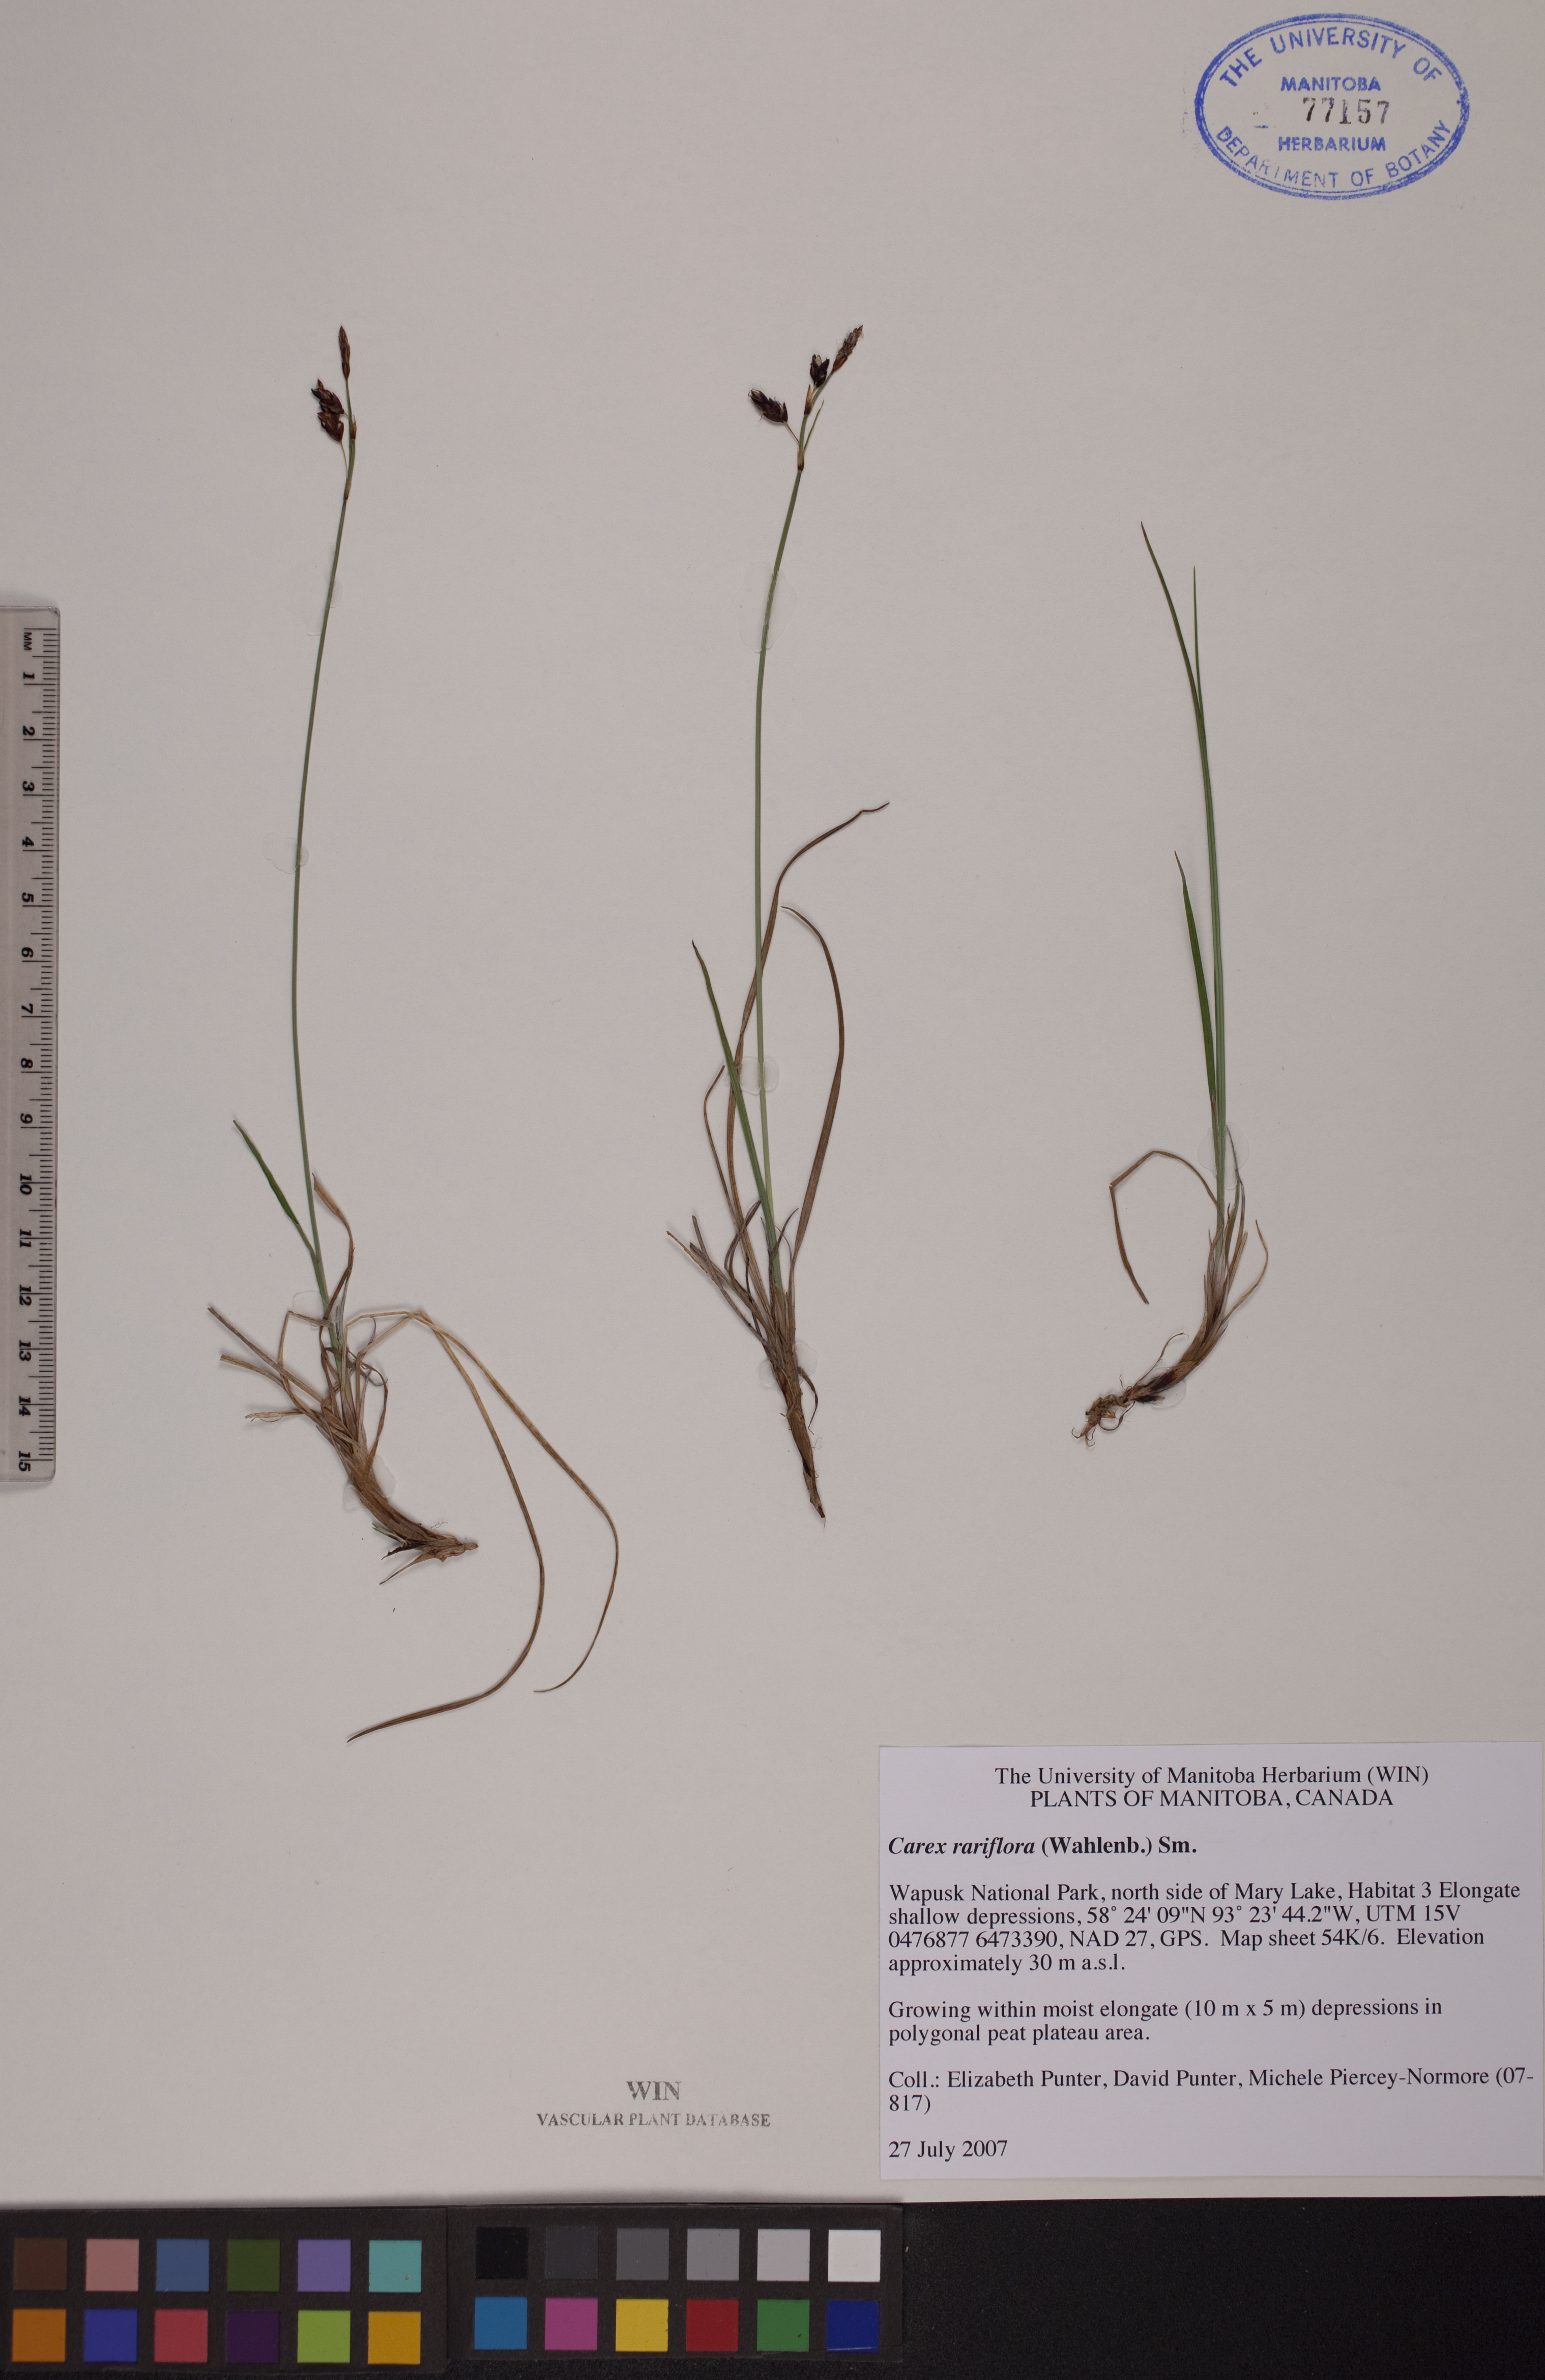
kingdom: Plantae
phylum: Tracheophyta
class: Liliopsida
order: Poales
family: Cyperaceae
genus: Carex
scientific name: Carex rariflora
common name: Loose-flowered alpine sedge
